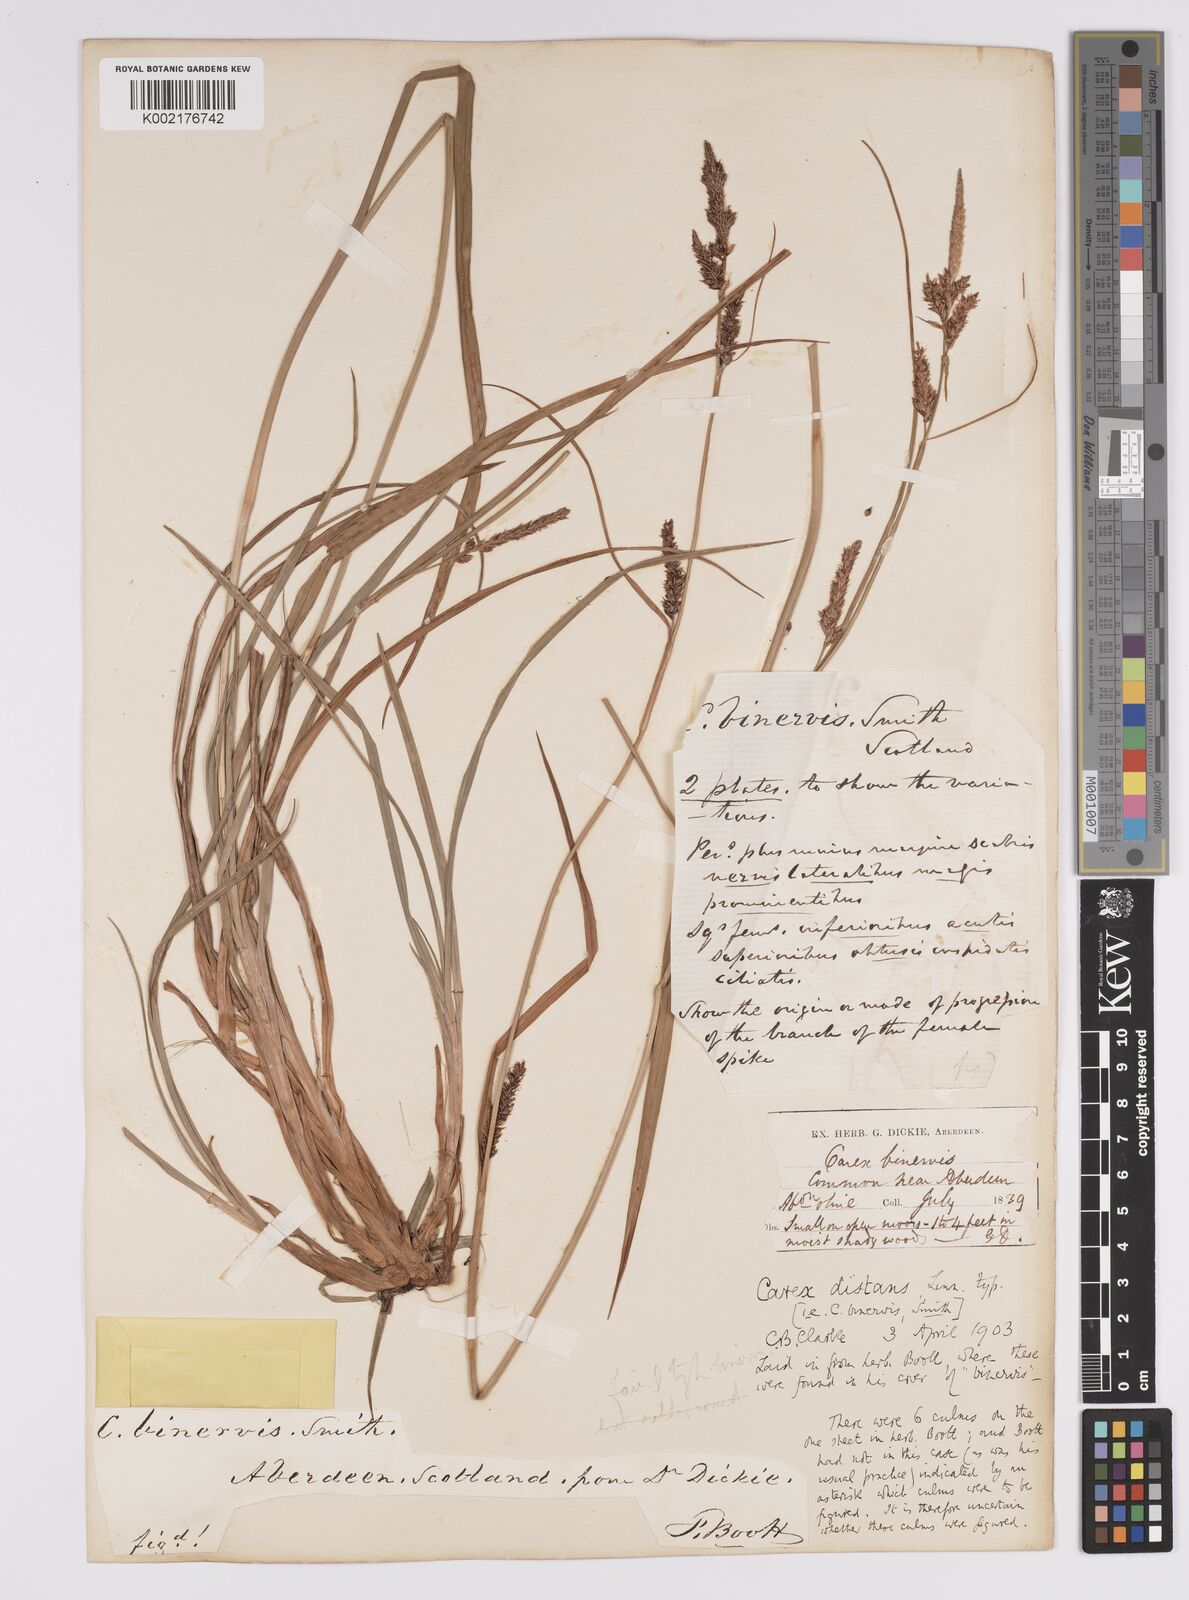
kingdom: Plantae
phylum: Tracheophyta
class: Liliopsida
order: Poales
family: Cyperaceae
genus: Carex
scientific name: Carex binervis
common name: Green-ribbed sedge
